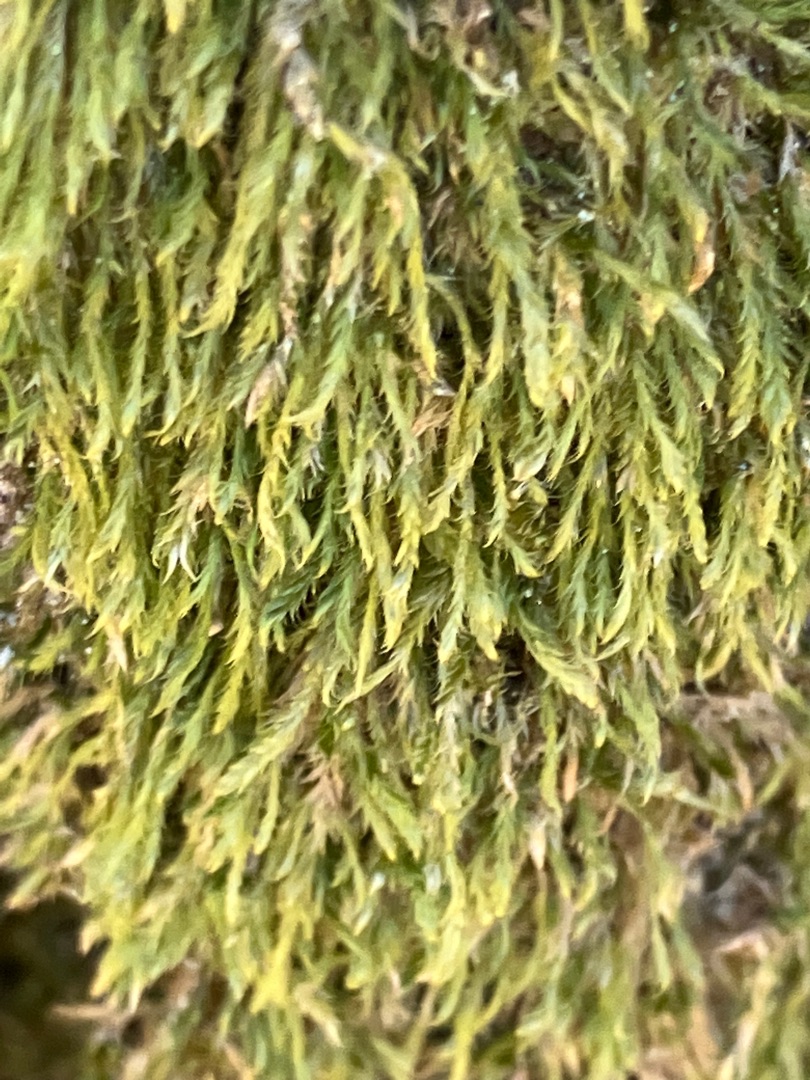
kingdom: Plantae
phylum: Bryophyta
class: Bryopsida
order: Hypnales
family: Hypnaceae
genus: Hypnum
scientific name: Hypnum
